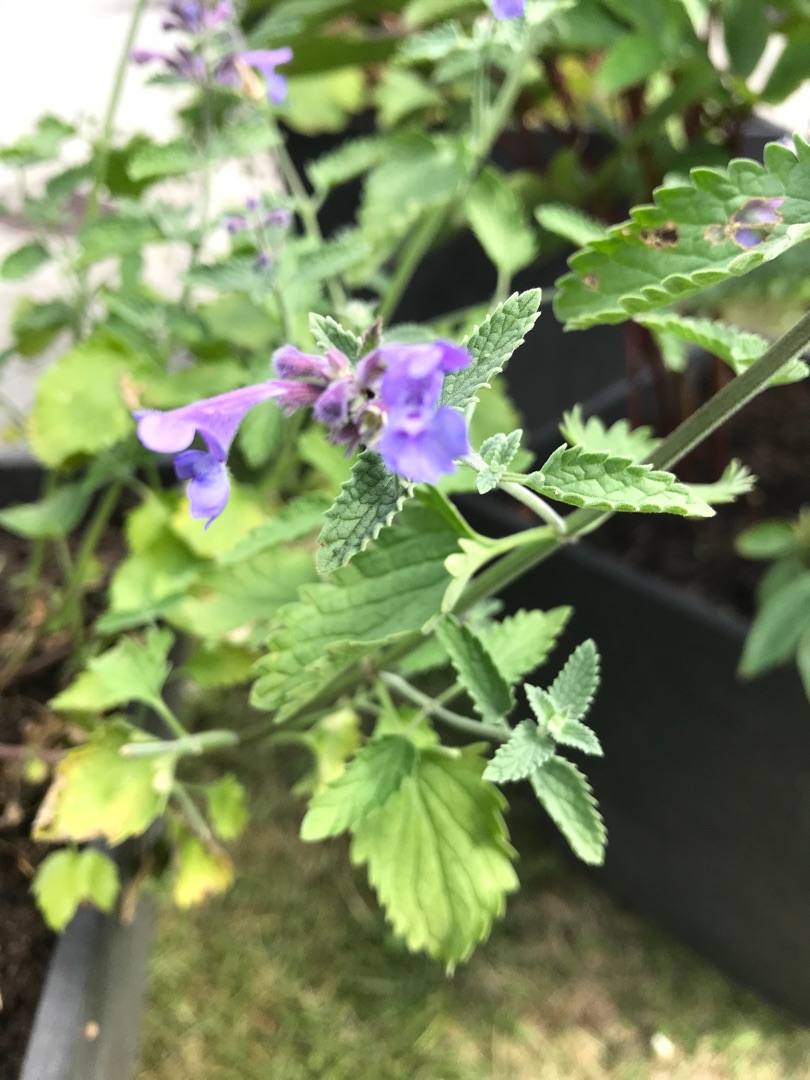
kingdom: Plantae
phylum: Tracheophyta
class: Magnoliopsida
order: Lamiales
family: Lamiaceae
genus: Nepeta
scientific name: Nepeta racemosa
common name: Ægte blåkant
